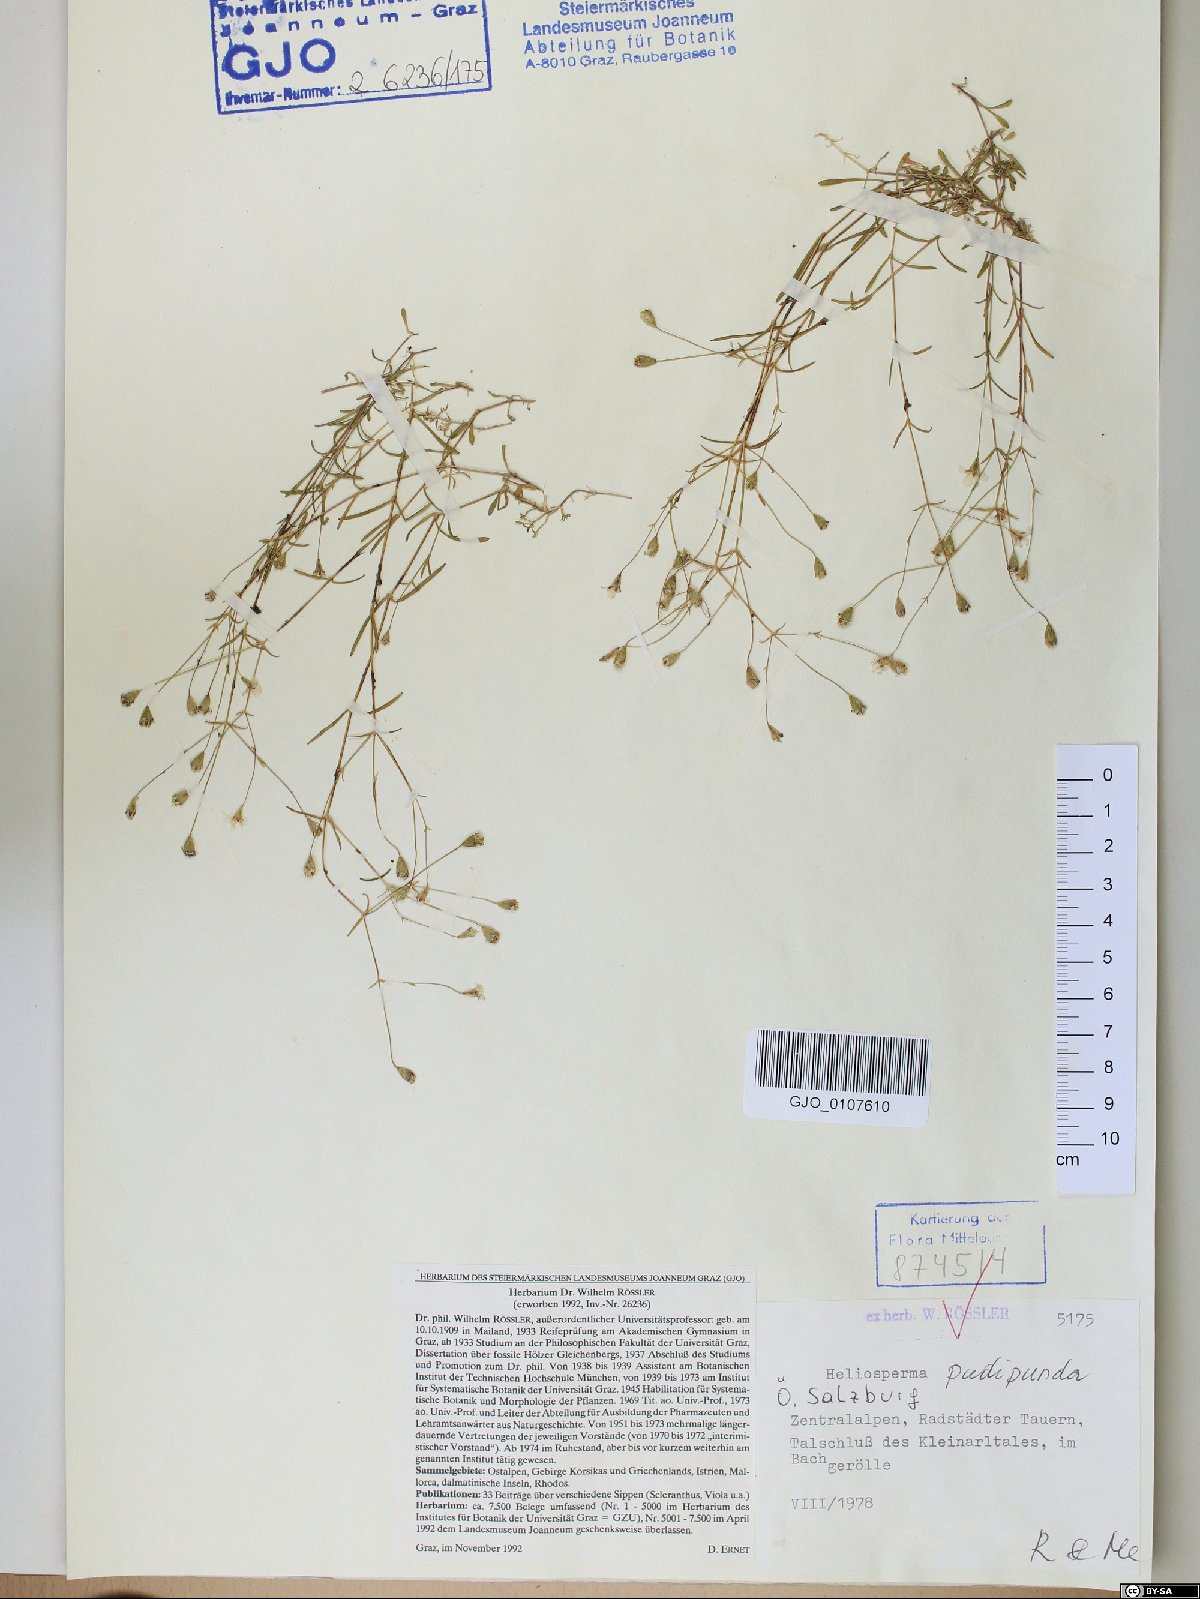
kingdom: Plantae
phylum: Tracheophyta
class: Magnoliopsida
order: Caryophyllales
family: Caryophyllaceae
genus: Heliosperma
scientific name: Heliosperma pudibundum
